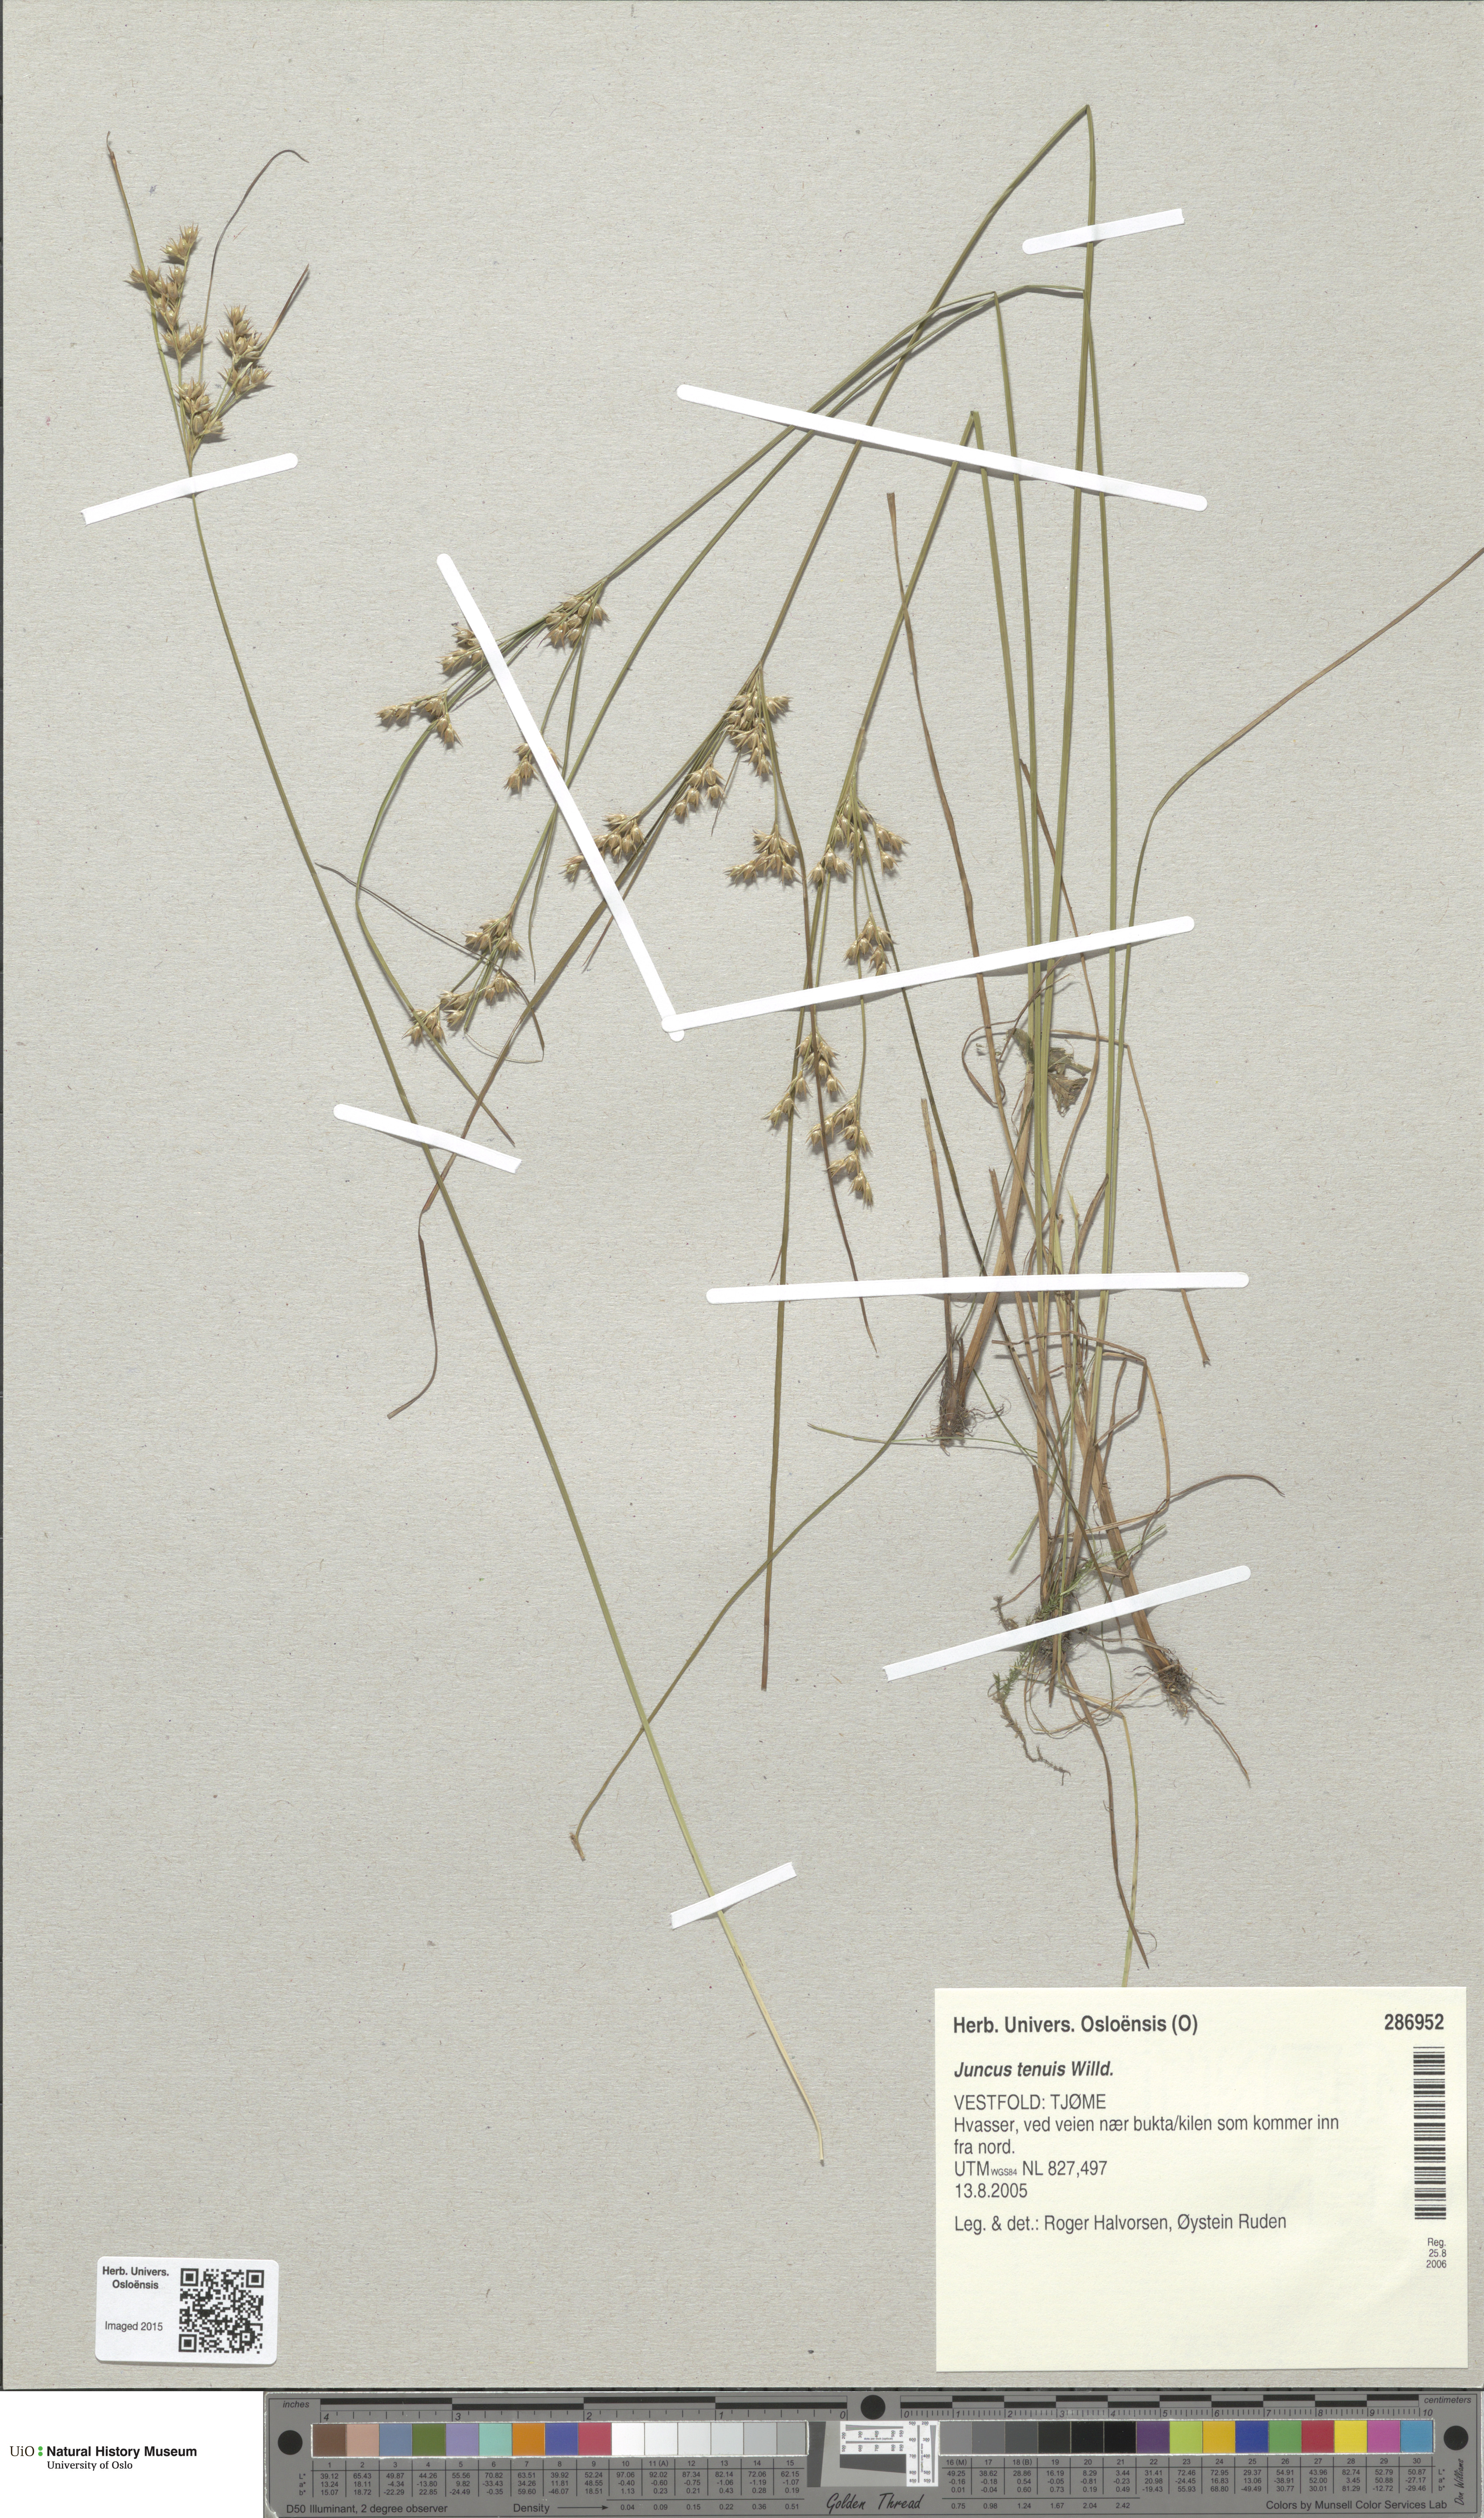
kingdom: Plantae
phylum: Tracheophyta
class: Liliopsida
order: Poales
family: Juncaceae
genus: Juncus
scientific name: Juncus tenuis
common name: Slender rush
